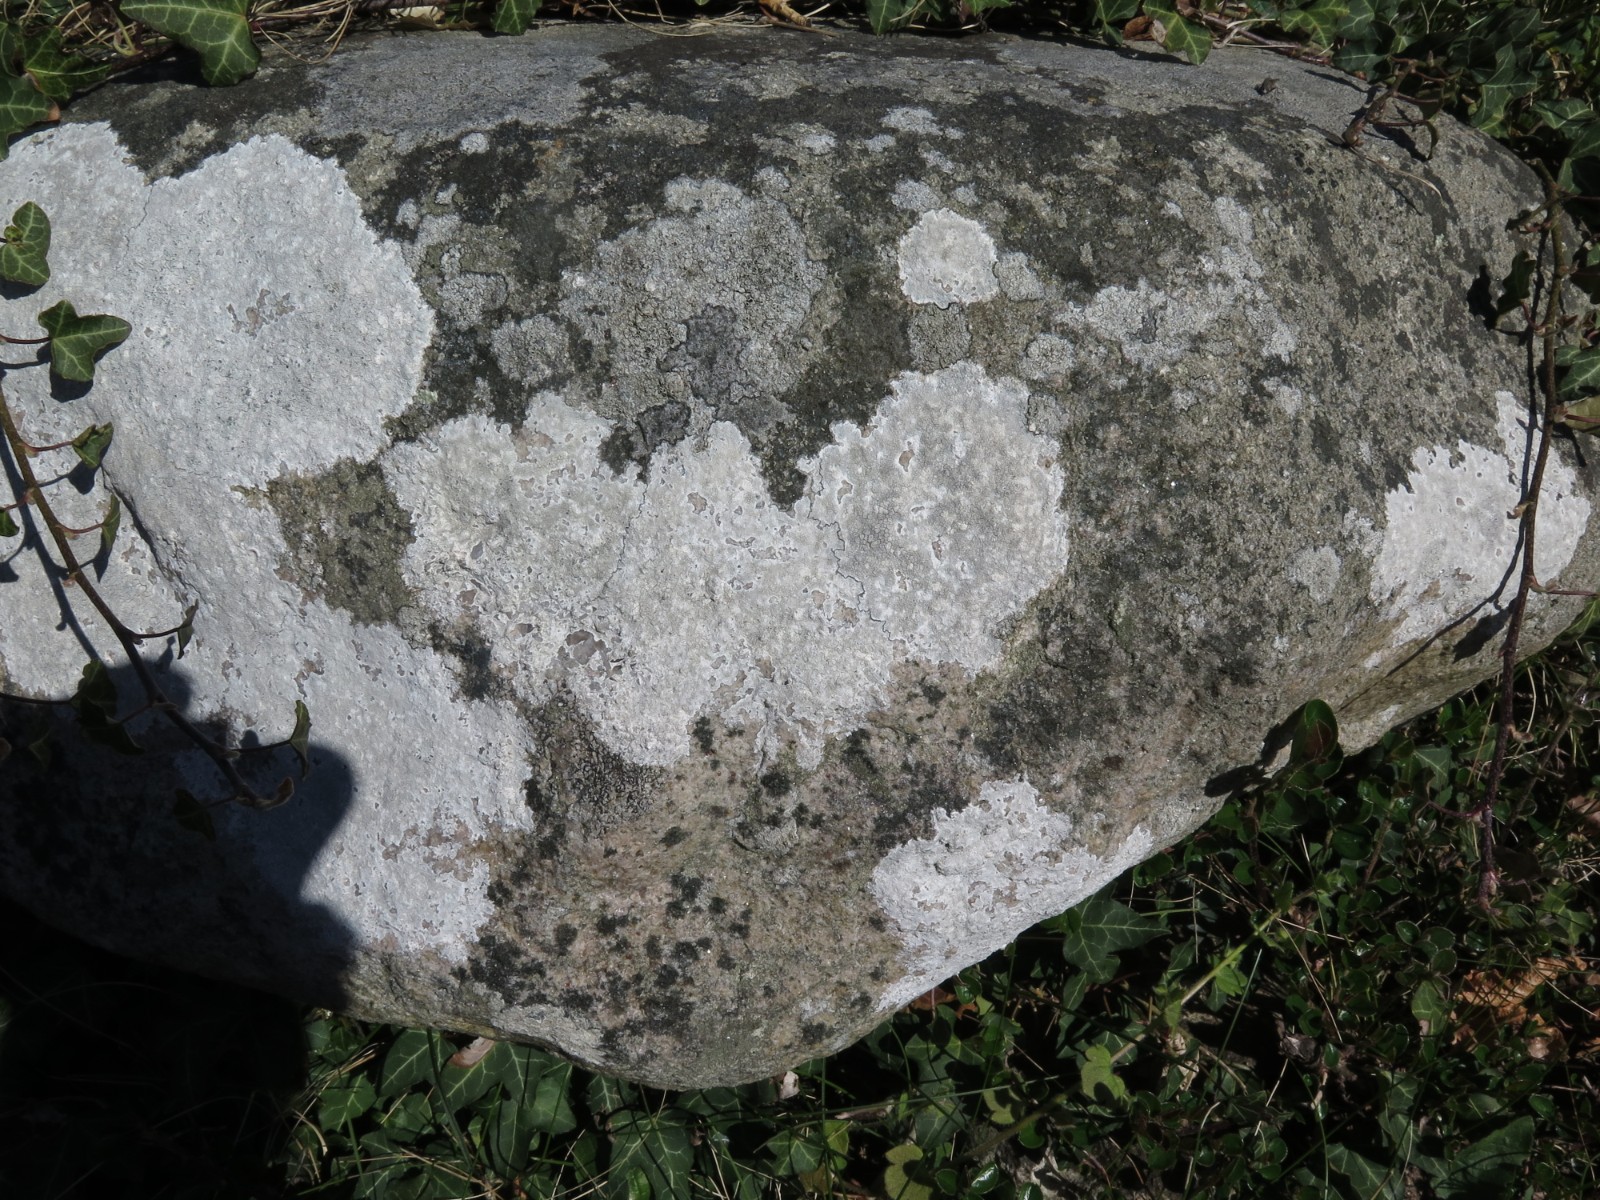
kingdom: Fungi
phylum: Ascomycota
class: Lecanoromycetes
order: Lecanorales
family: Lecanoraceae
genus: Glaucomaria
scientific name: Glaucomaria rupicola
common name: stengærde-kantskivelav
